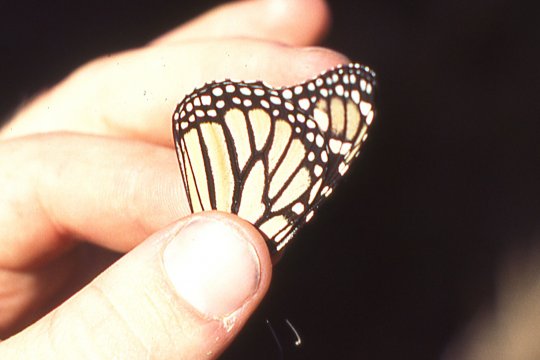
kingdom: Animalia
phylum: Arthropoda
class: Insecta
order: Lepidoptera
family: Nymphalidae
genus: Danaus
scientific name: Danaus plexippus
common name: Monarch
